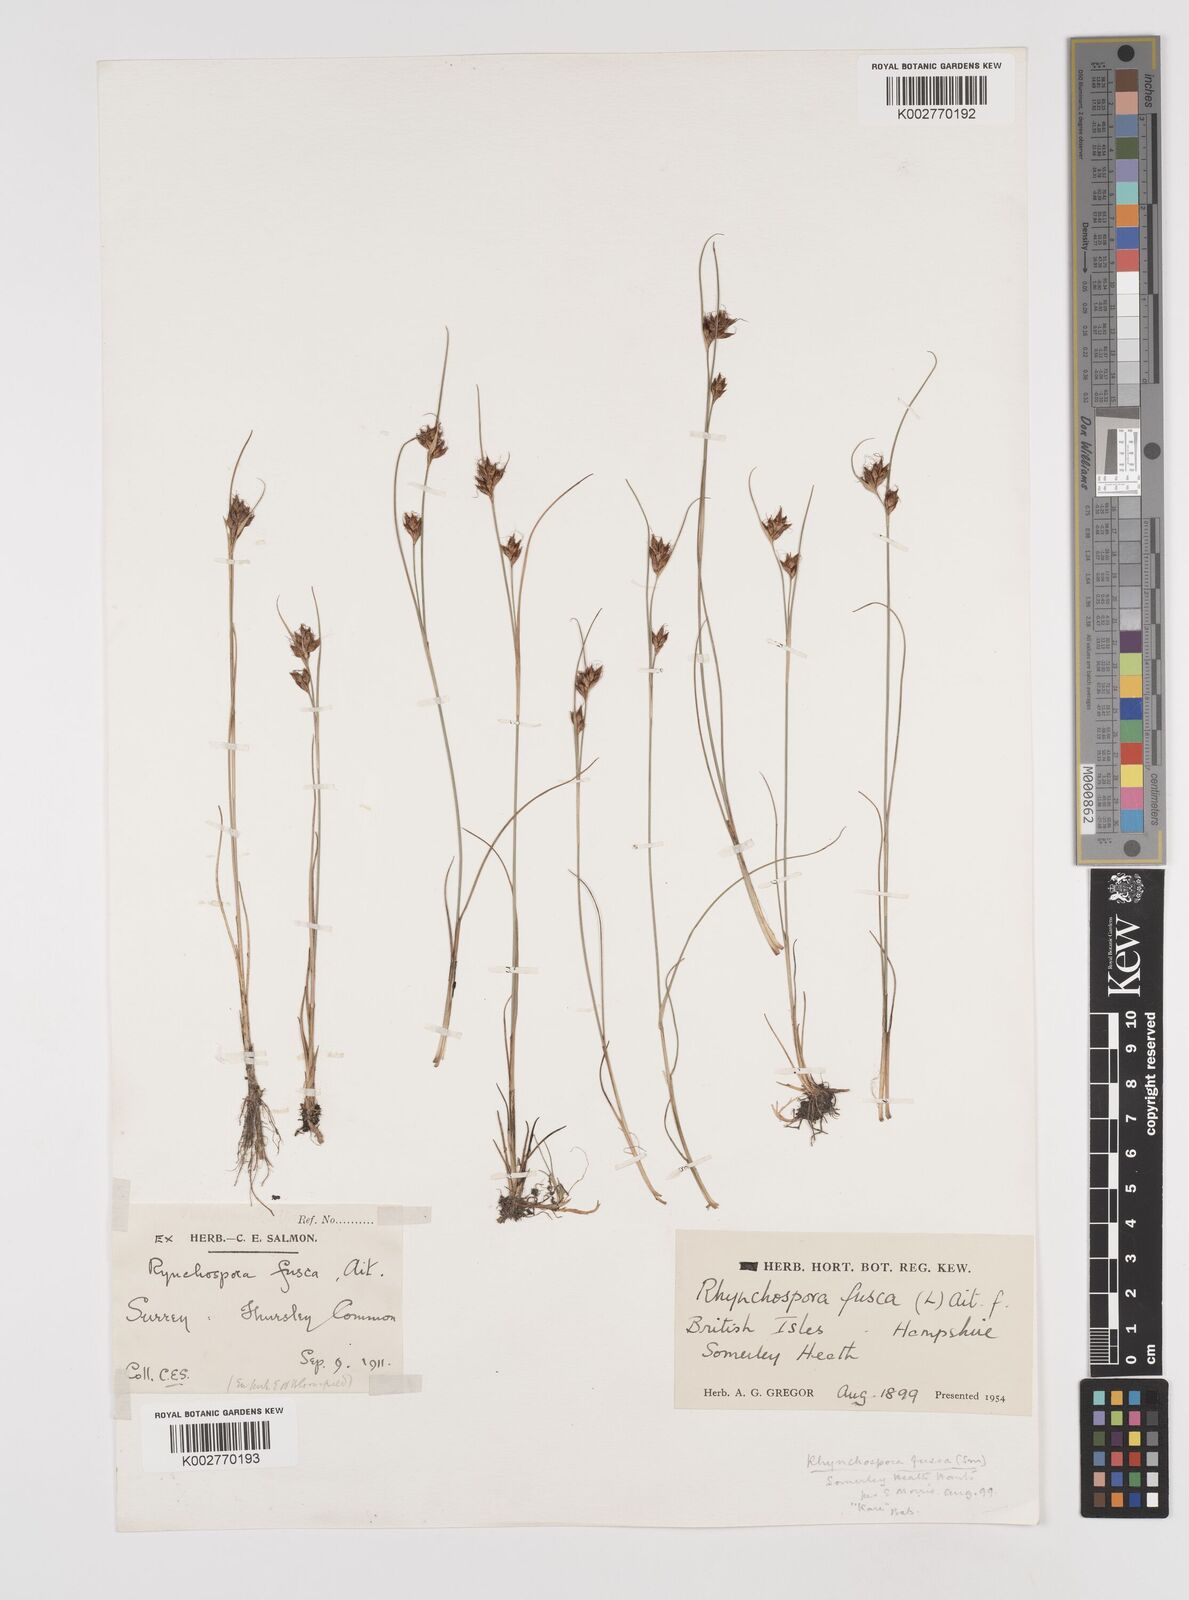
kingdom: Plantae
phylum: Tracheophyta
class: Liliopsida
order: Poales
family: Cyperaceae
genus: Rhynchospora
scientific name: Rhynchospora fusca
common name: Brown beak-sedge
